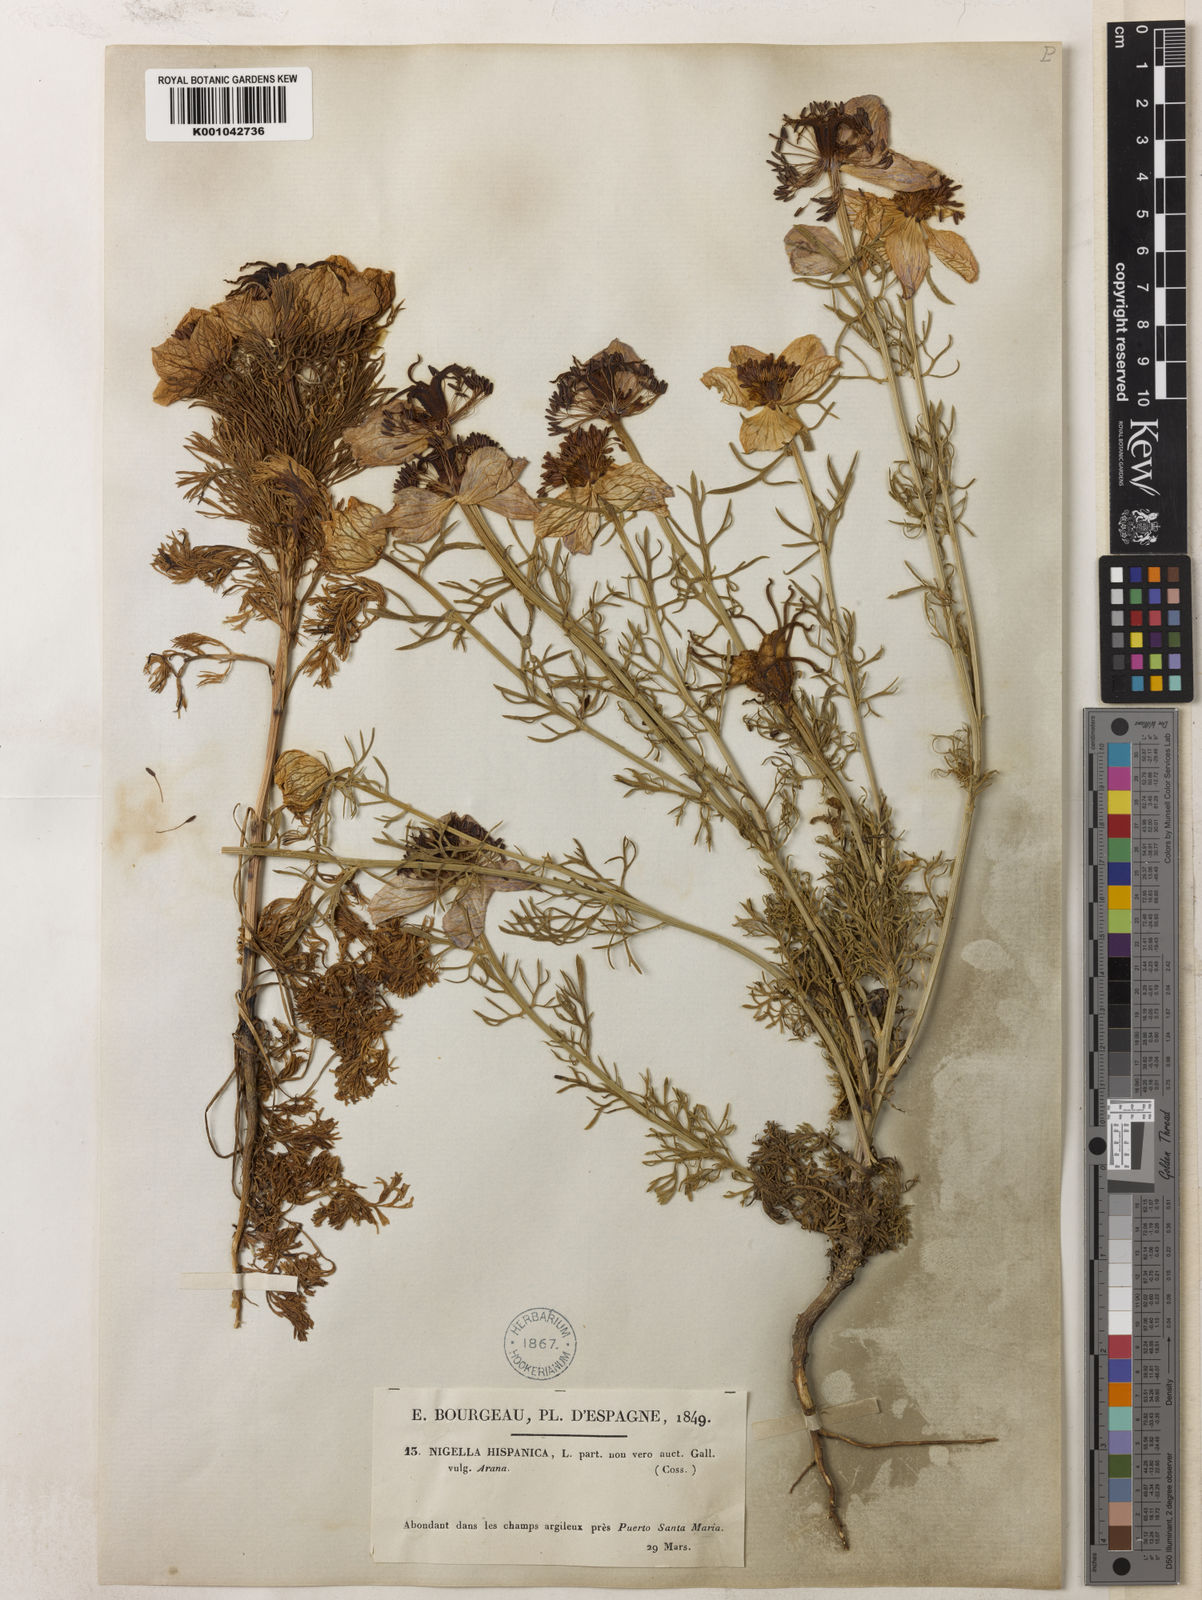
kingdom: Plantae
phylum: Tracheophyta
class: Magnoliopsida
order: Ranunculales
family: Ranunculaceae
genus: Nigella
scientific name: Nigella hispanica
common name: Fennel-flower
